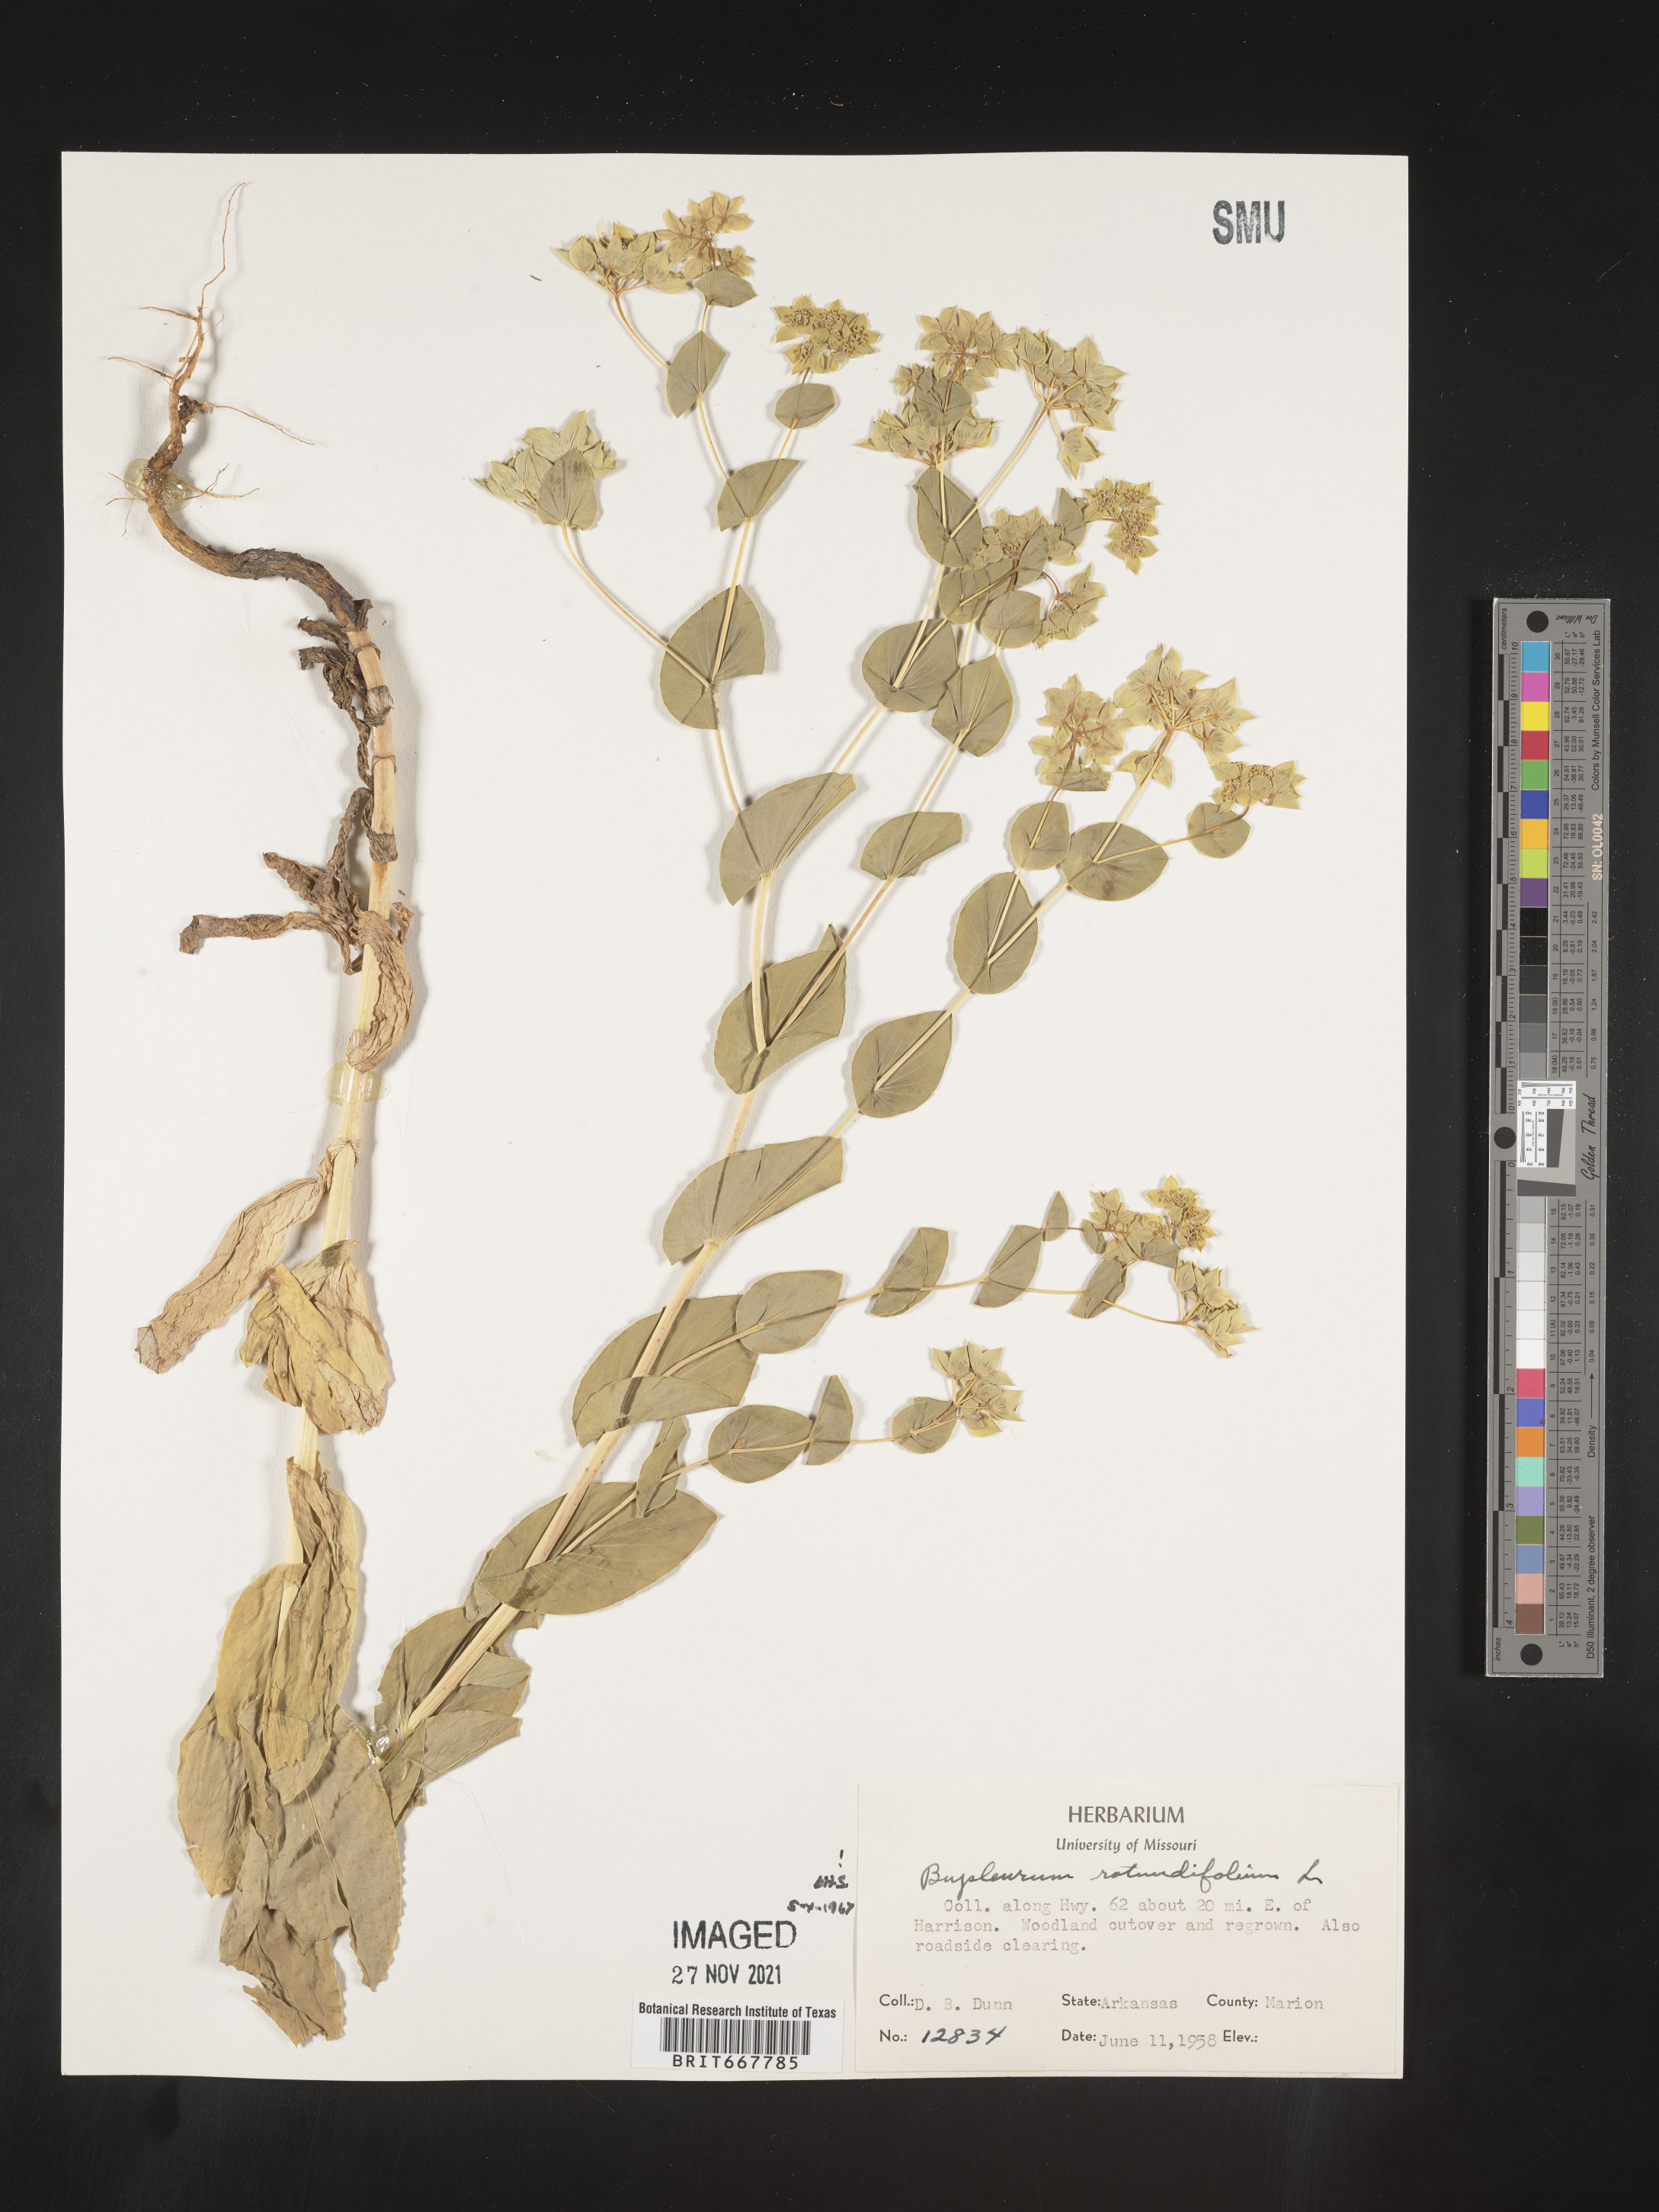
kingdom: Plantae
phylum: Tracheophyta
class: Magnoliopsida
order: Apiales
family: Apiaceae
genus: Bupleurum
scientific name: Bupleurum
